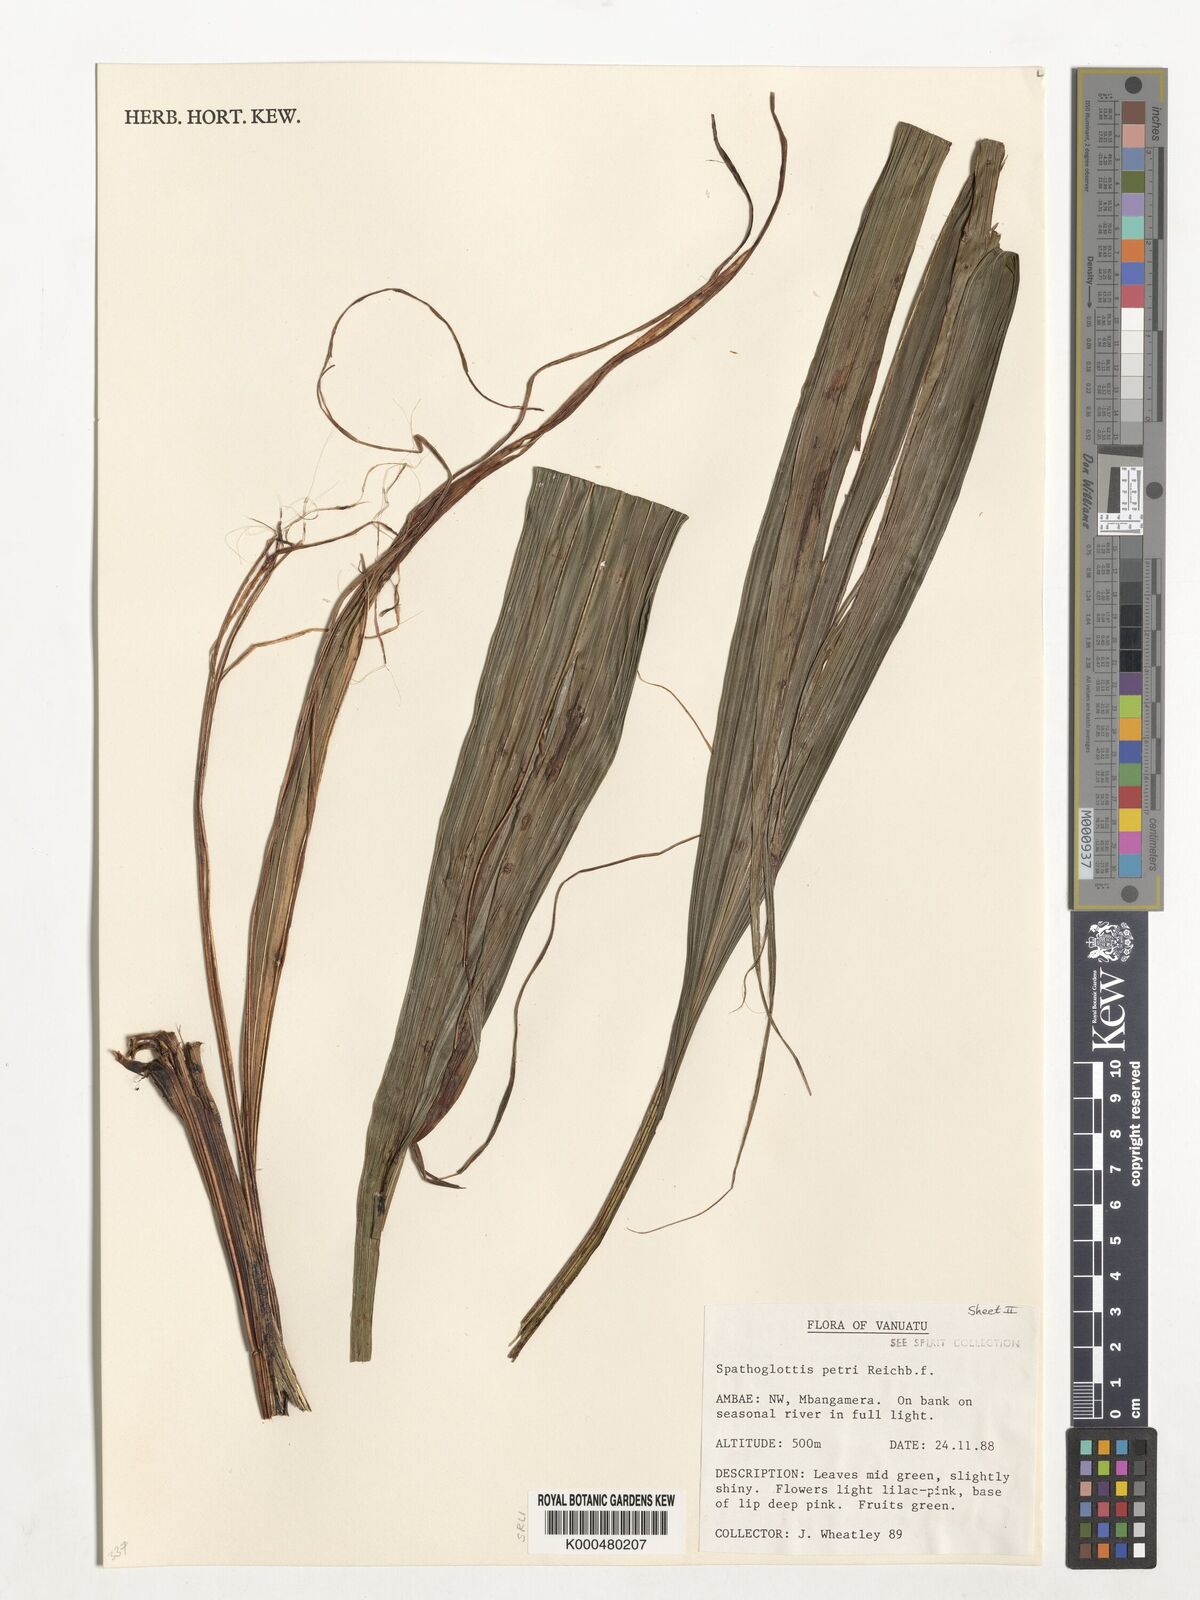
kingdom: Plantae
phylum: Tracheophyta
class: Liliopsida
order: Asparagales
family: Orchidaceae
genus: Spathoglottis
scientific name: Spathoglottis petri
